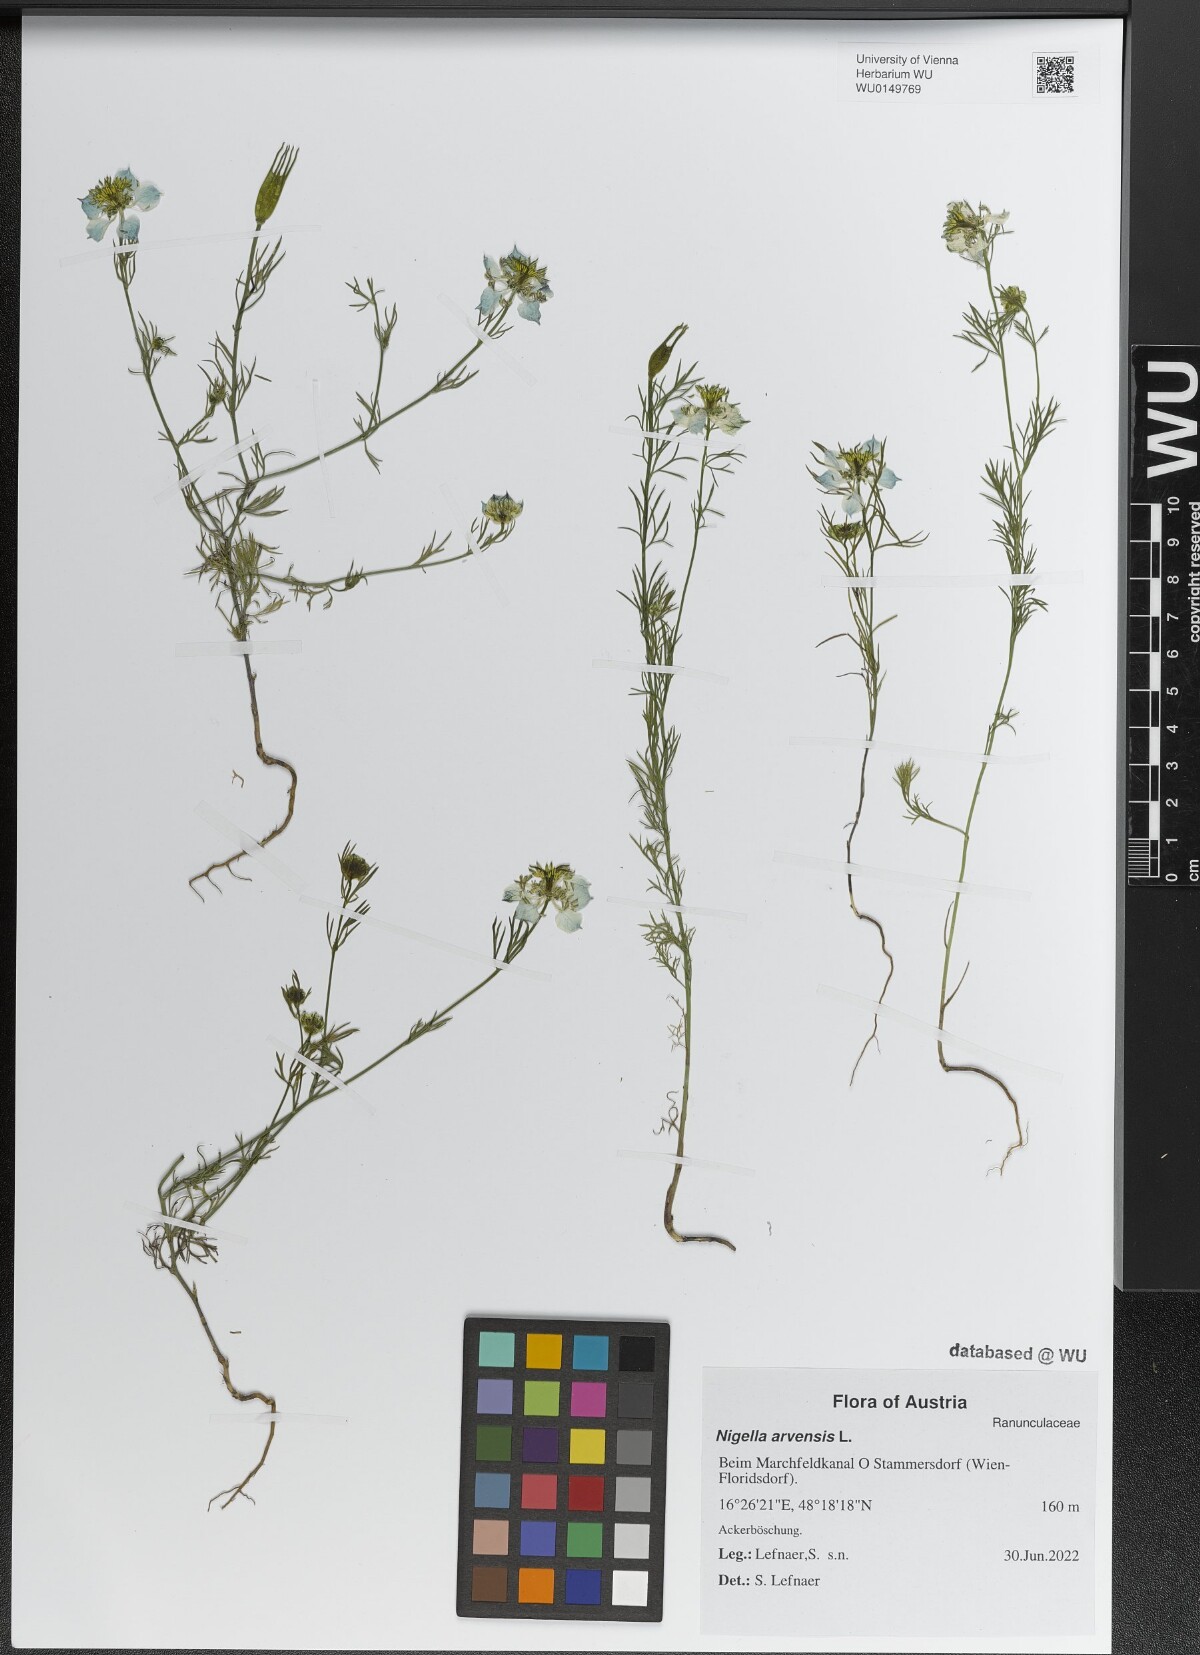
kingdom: Plantae
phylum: Tracheophyta
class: Magnoliopsida
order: Ranunculales
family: Ranunculaceae
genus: Nigella
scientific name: Nigella arvensis
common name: Wild fennel-flower
